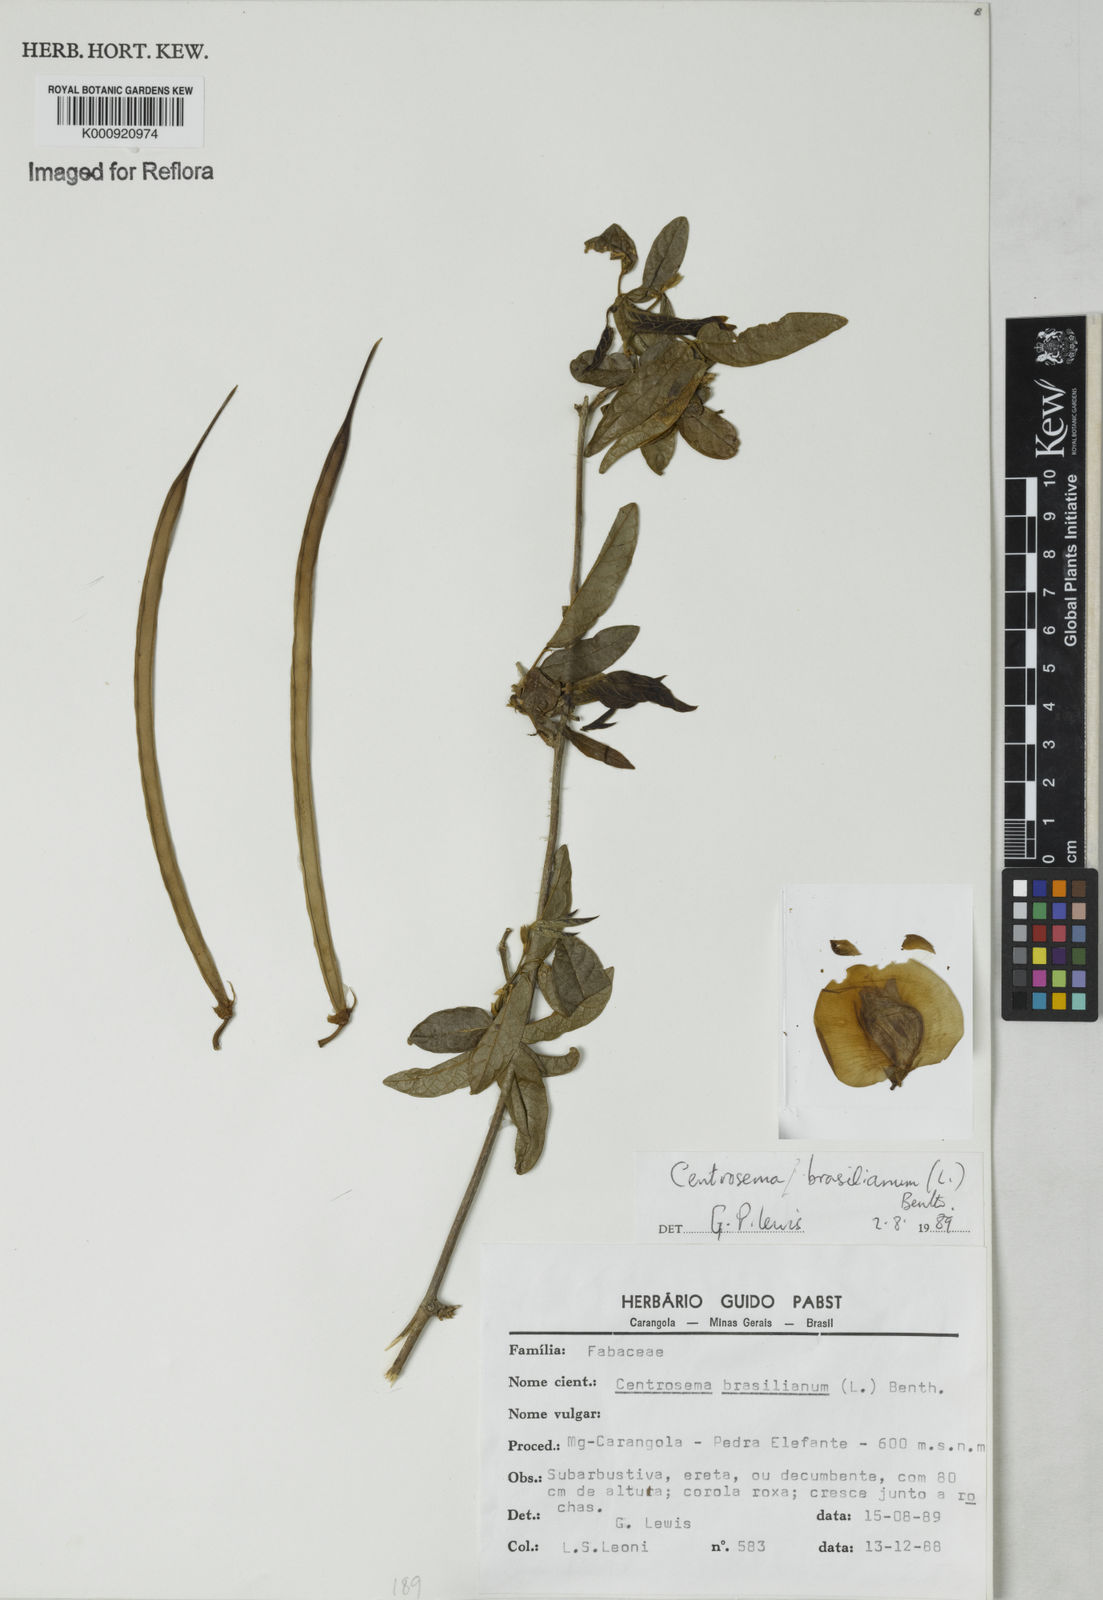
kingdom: Plantae
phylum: Tracheophyta
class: Magnoliopsida
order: Fabales
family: Fabaceae
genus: Centrosema
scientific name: Centrosema
